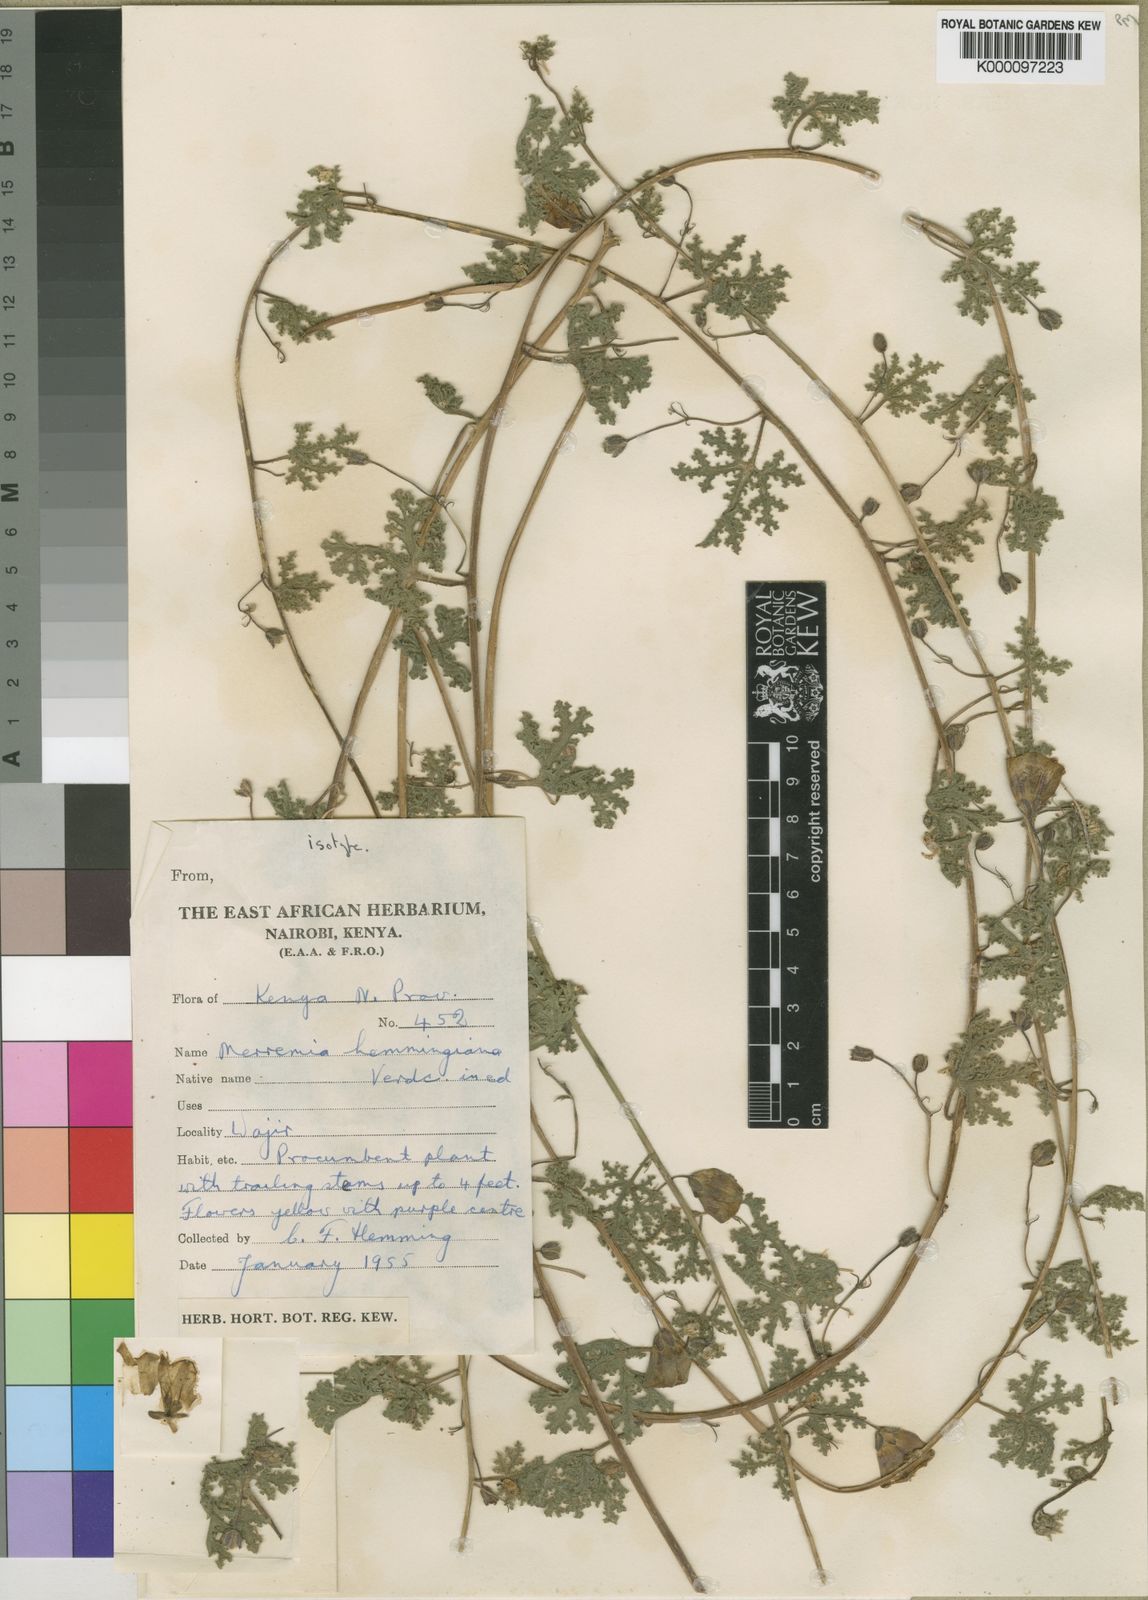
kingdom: Plantae
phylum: Tracheophyta
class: Magnoliopsida
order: Solanales
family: Convolvulaceae
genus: Merremia
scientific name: Merremia hemmingiana
